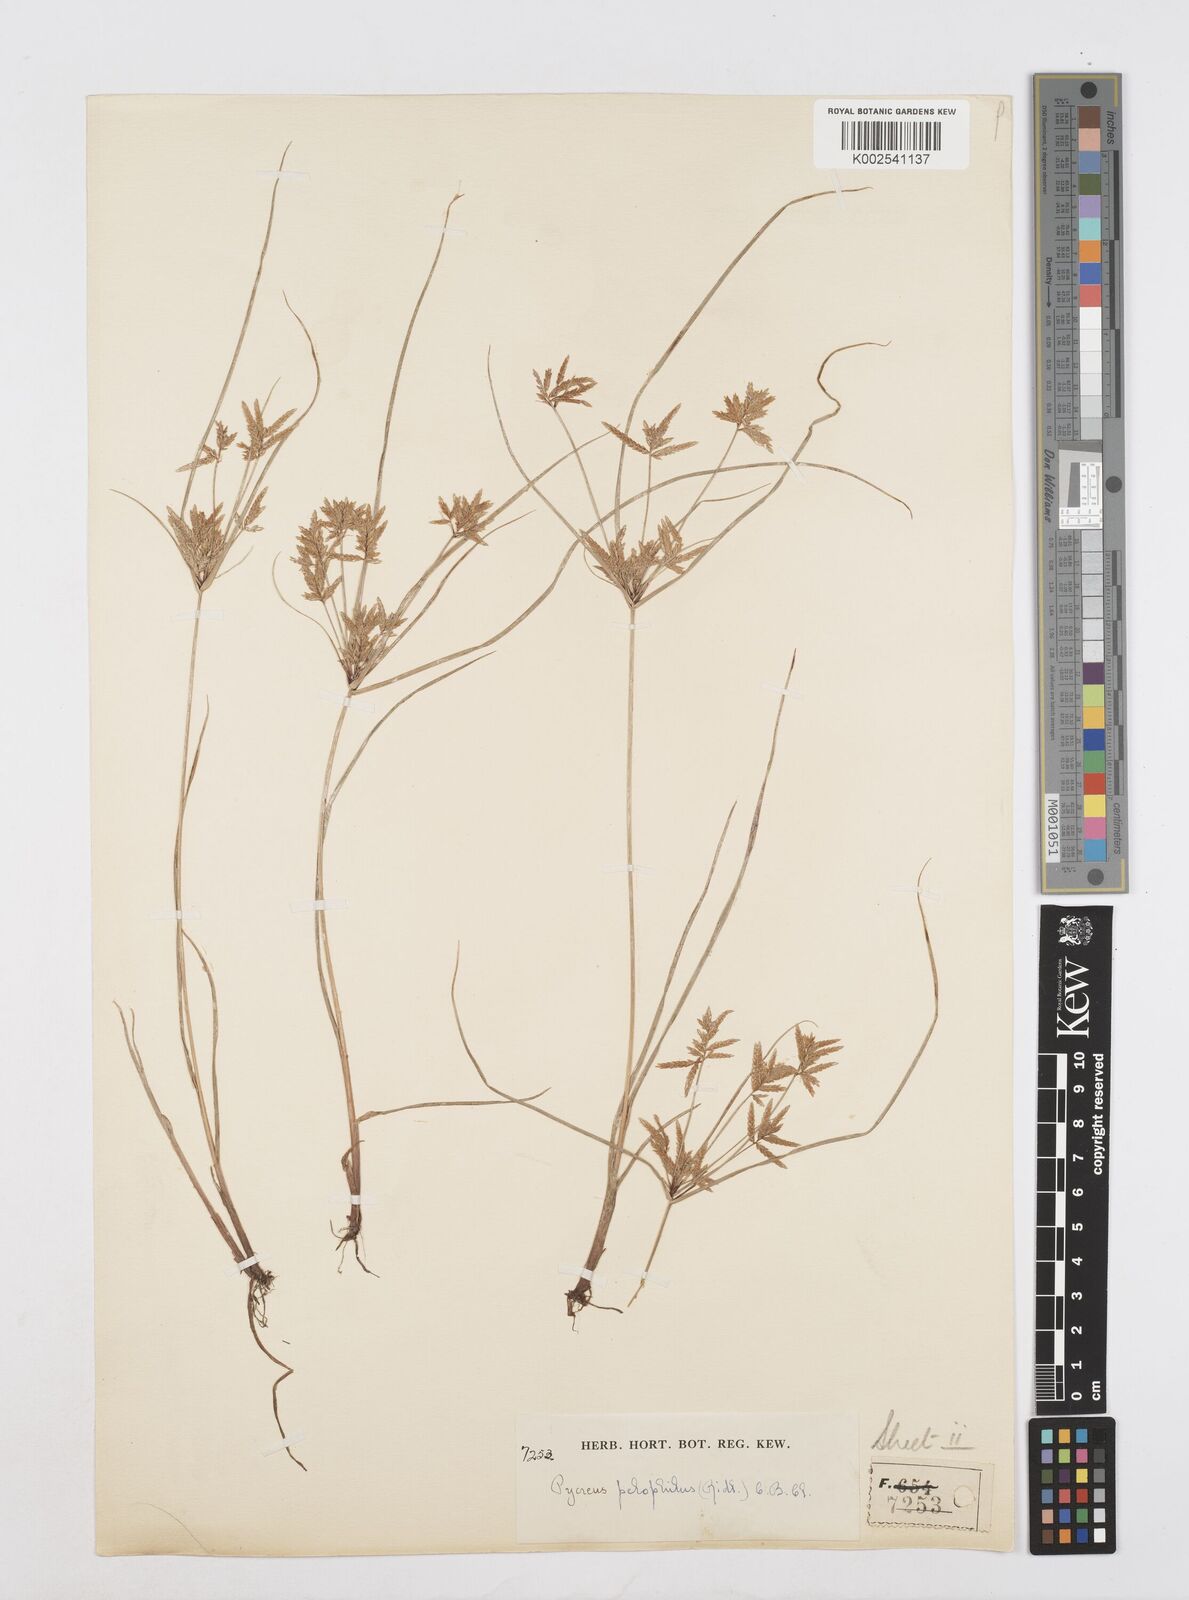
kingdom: Plantae
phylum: Tracheophyta
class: Liliopsida
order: Poales
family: Cyperaceae
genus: Cyperus
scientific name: Cyperus pelophilus
